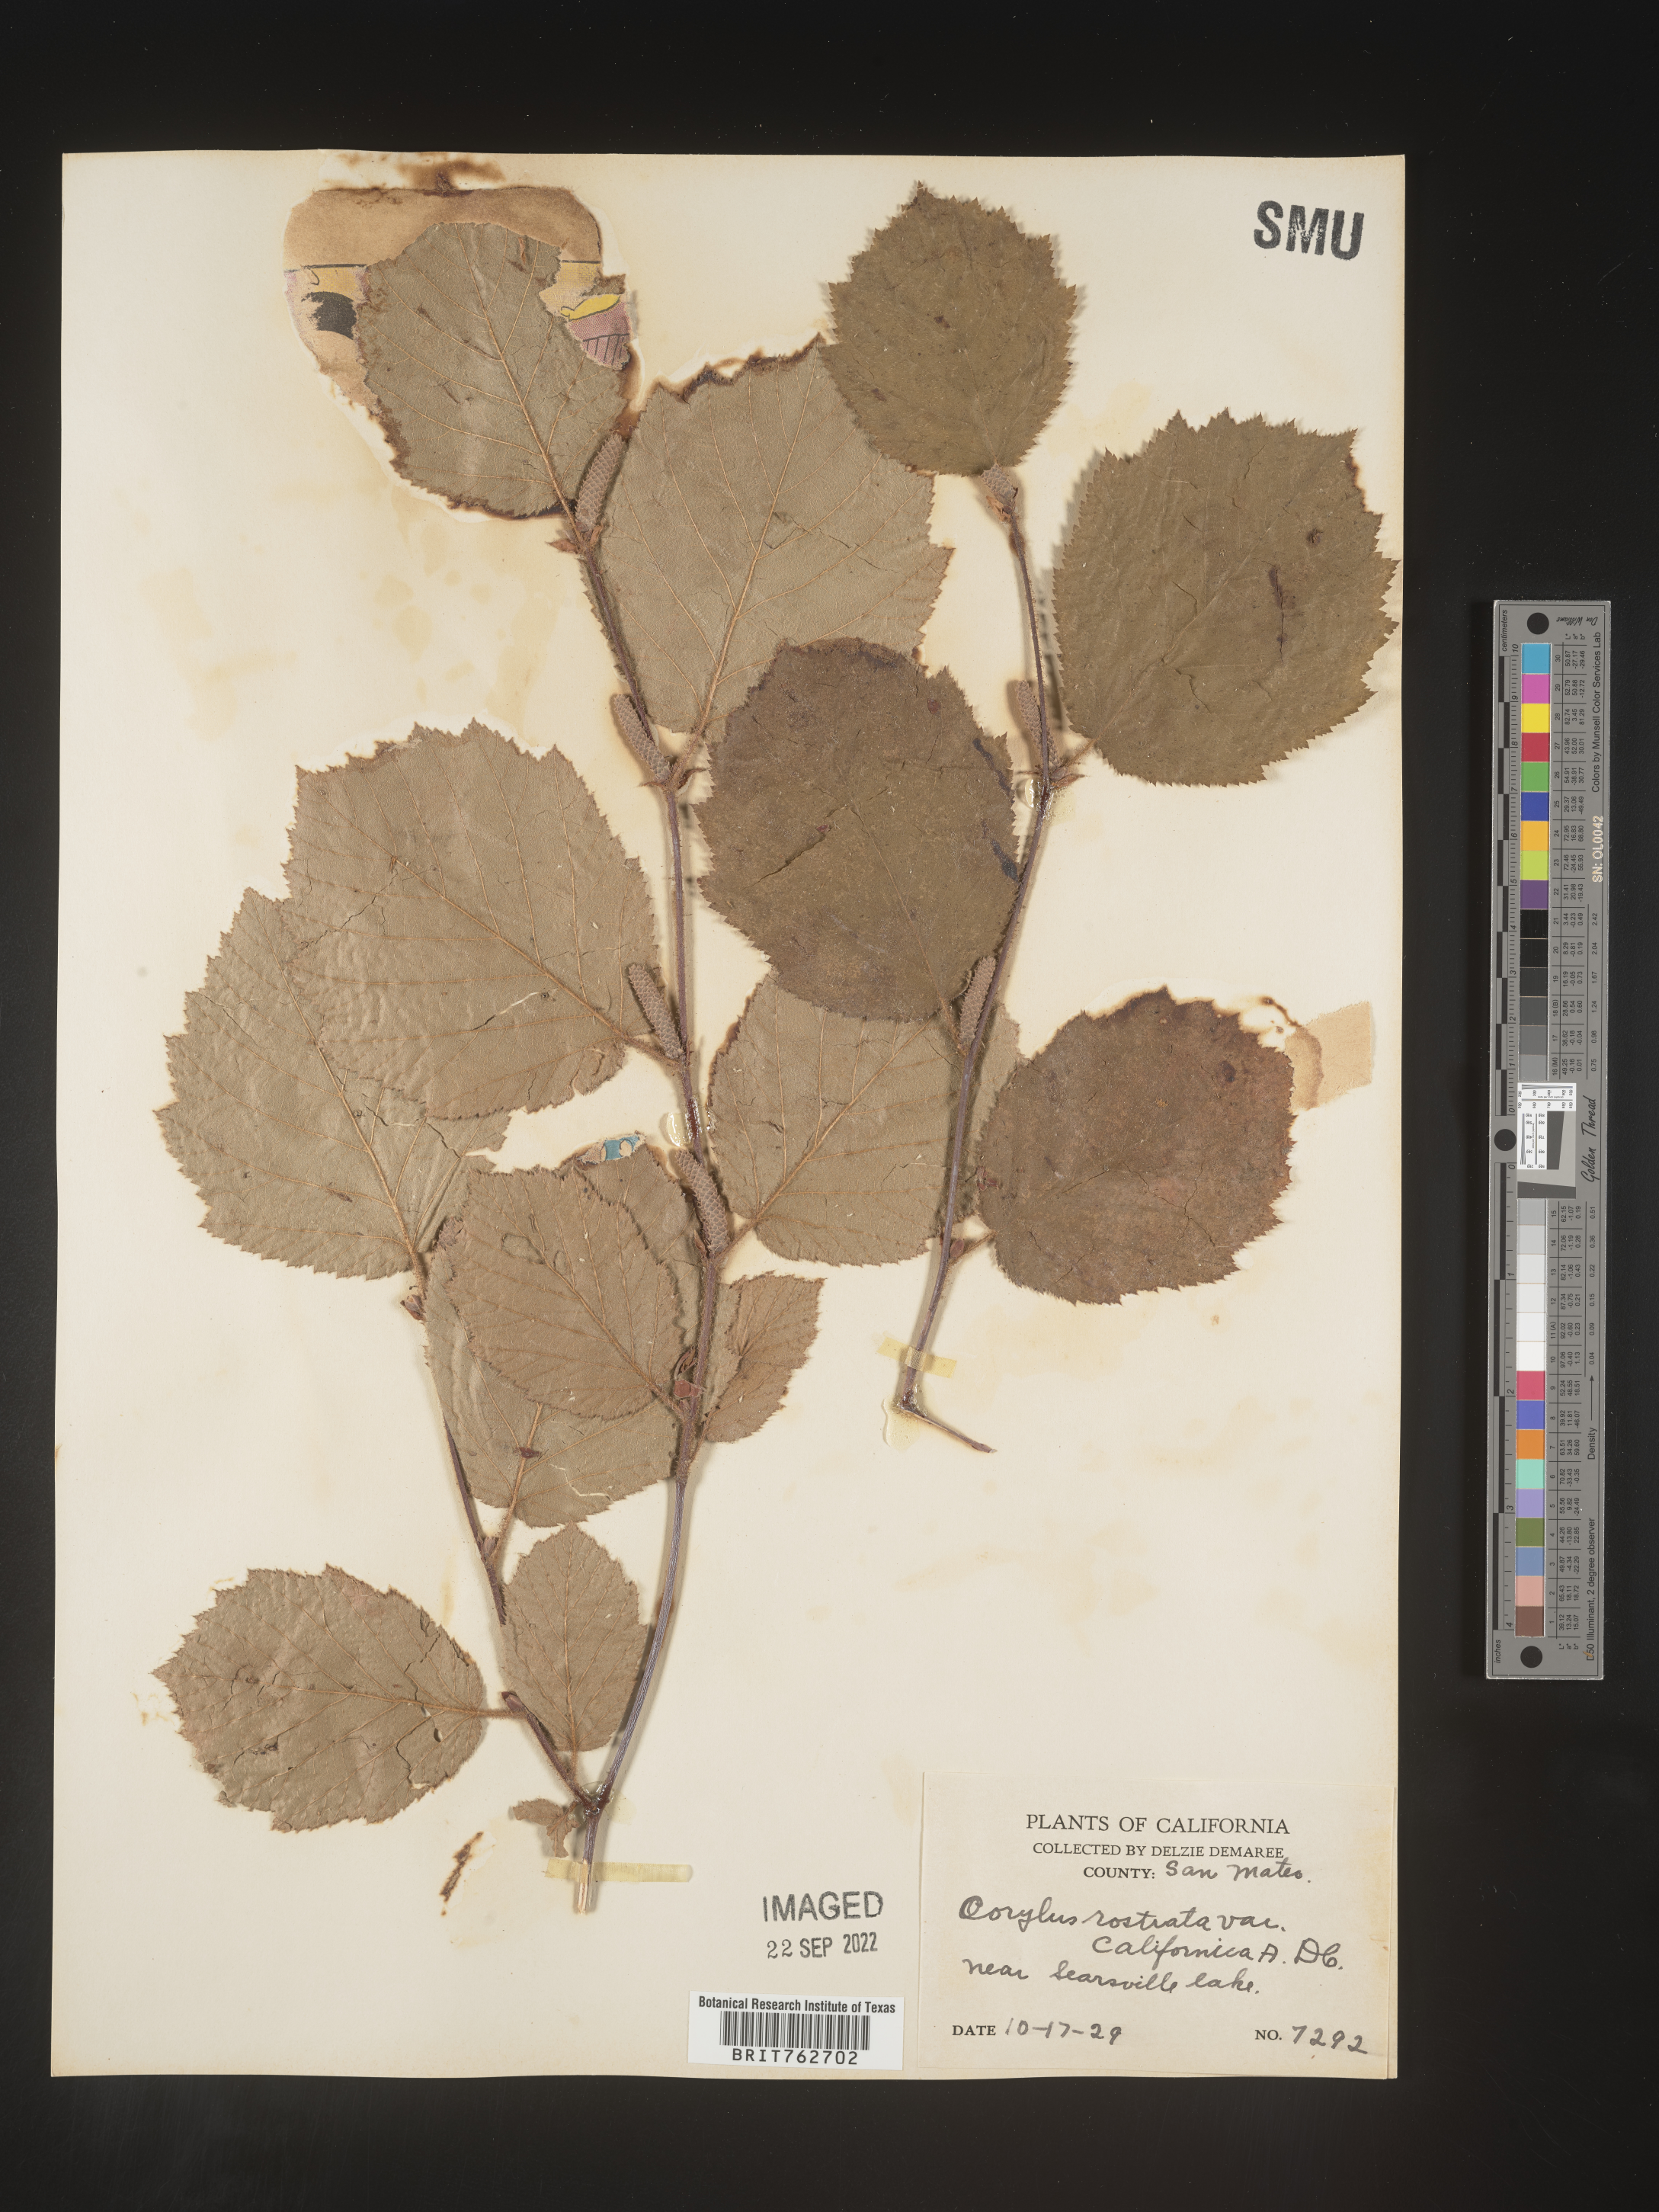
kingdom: Plantae
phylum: Tracheophyta
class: Magnoliopsida
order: Fagales
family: Betulaceae
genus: Corylus
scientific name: Corylus cornuta
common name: Beaked hazel
